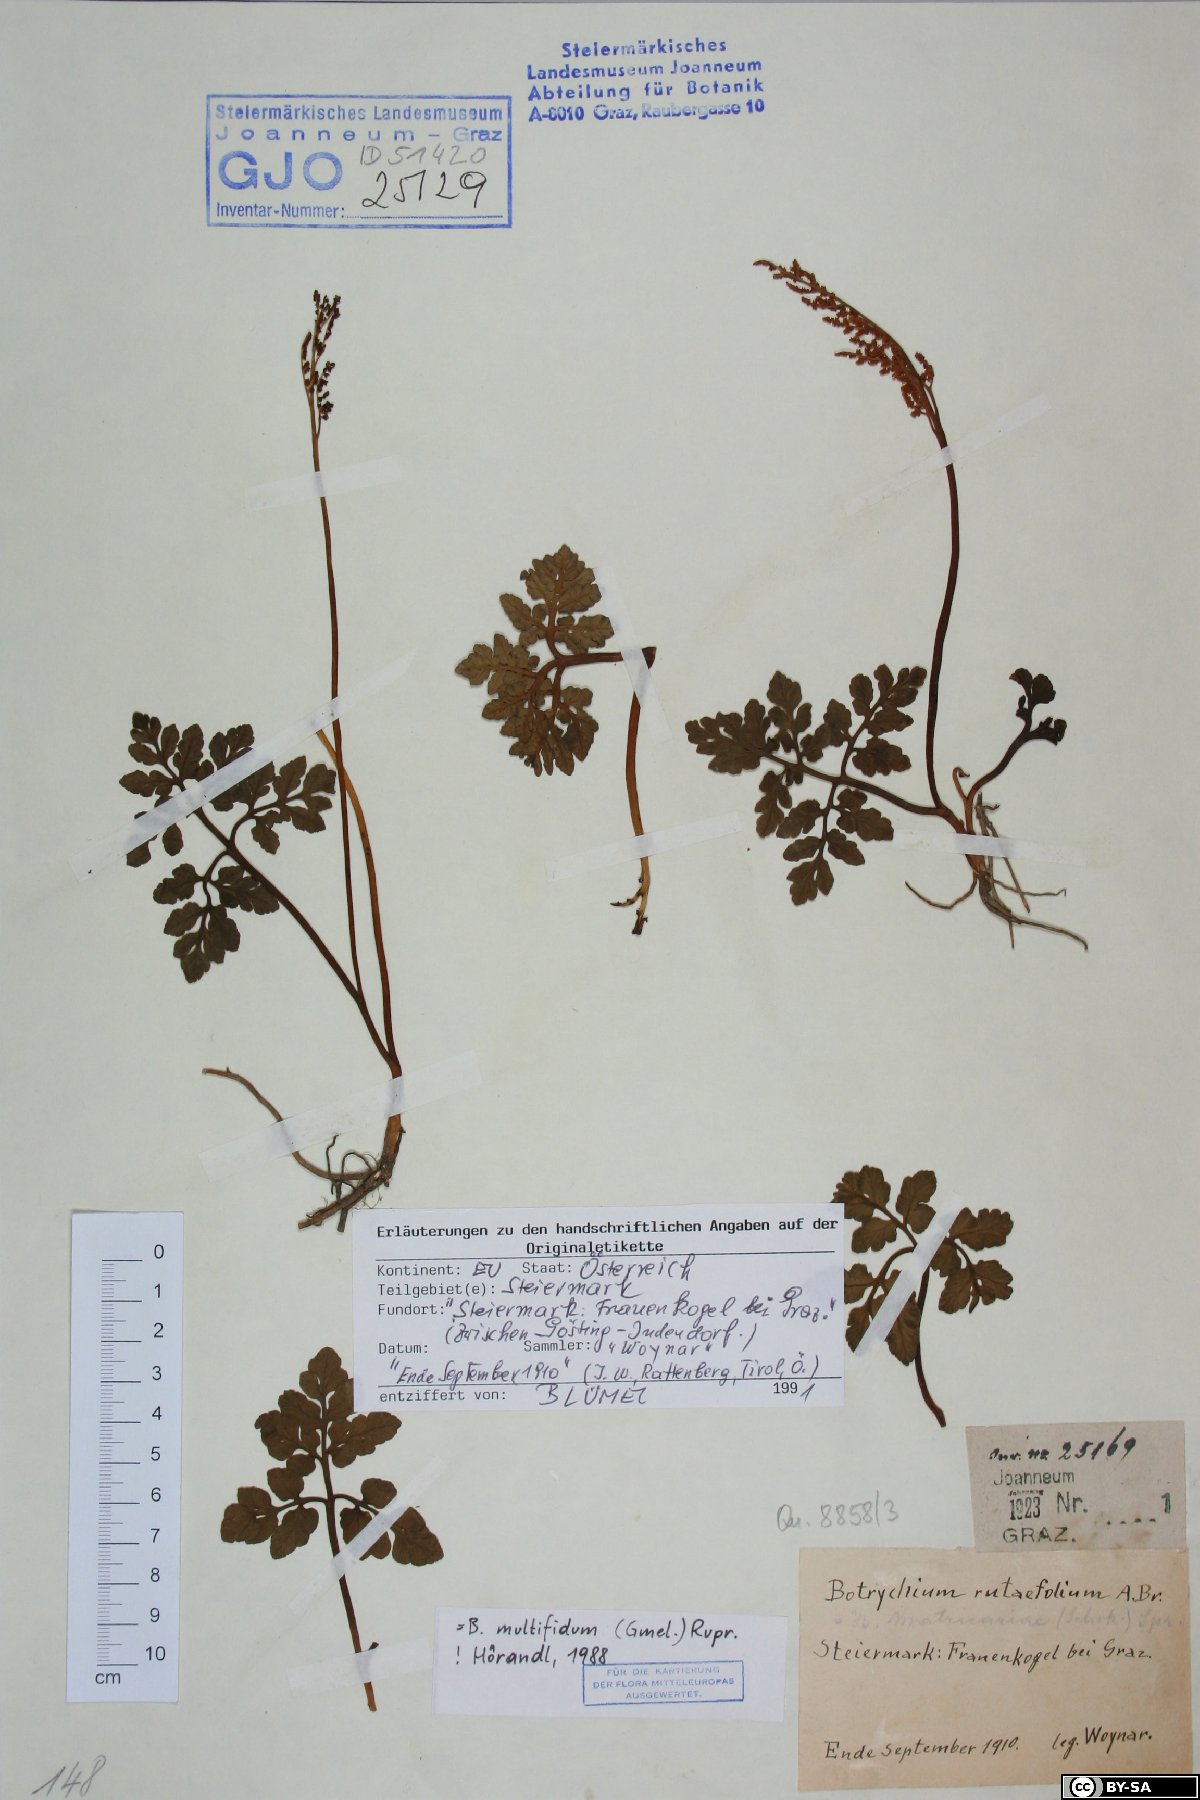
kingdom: Plantae
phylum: Tracheophyta
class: Polypodiopsida
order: Ophioglossales
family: Ophioglossaceae
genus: Sceptridium
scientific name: Sceptridium multifidum
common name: Leathery grape fern
